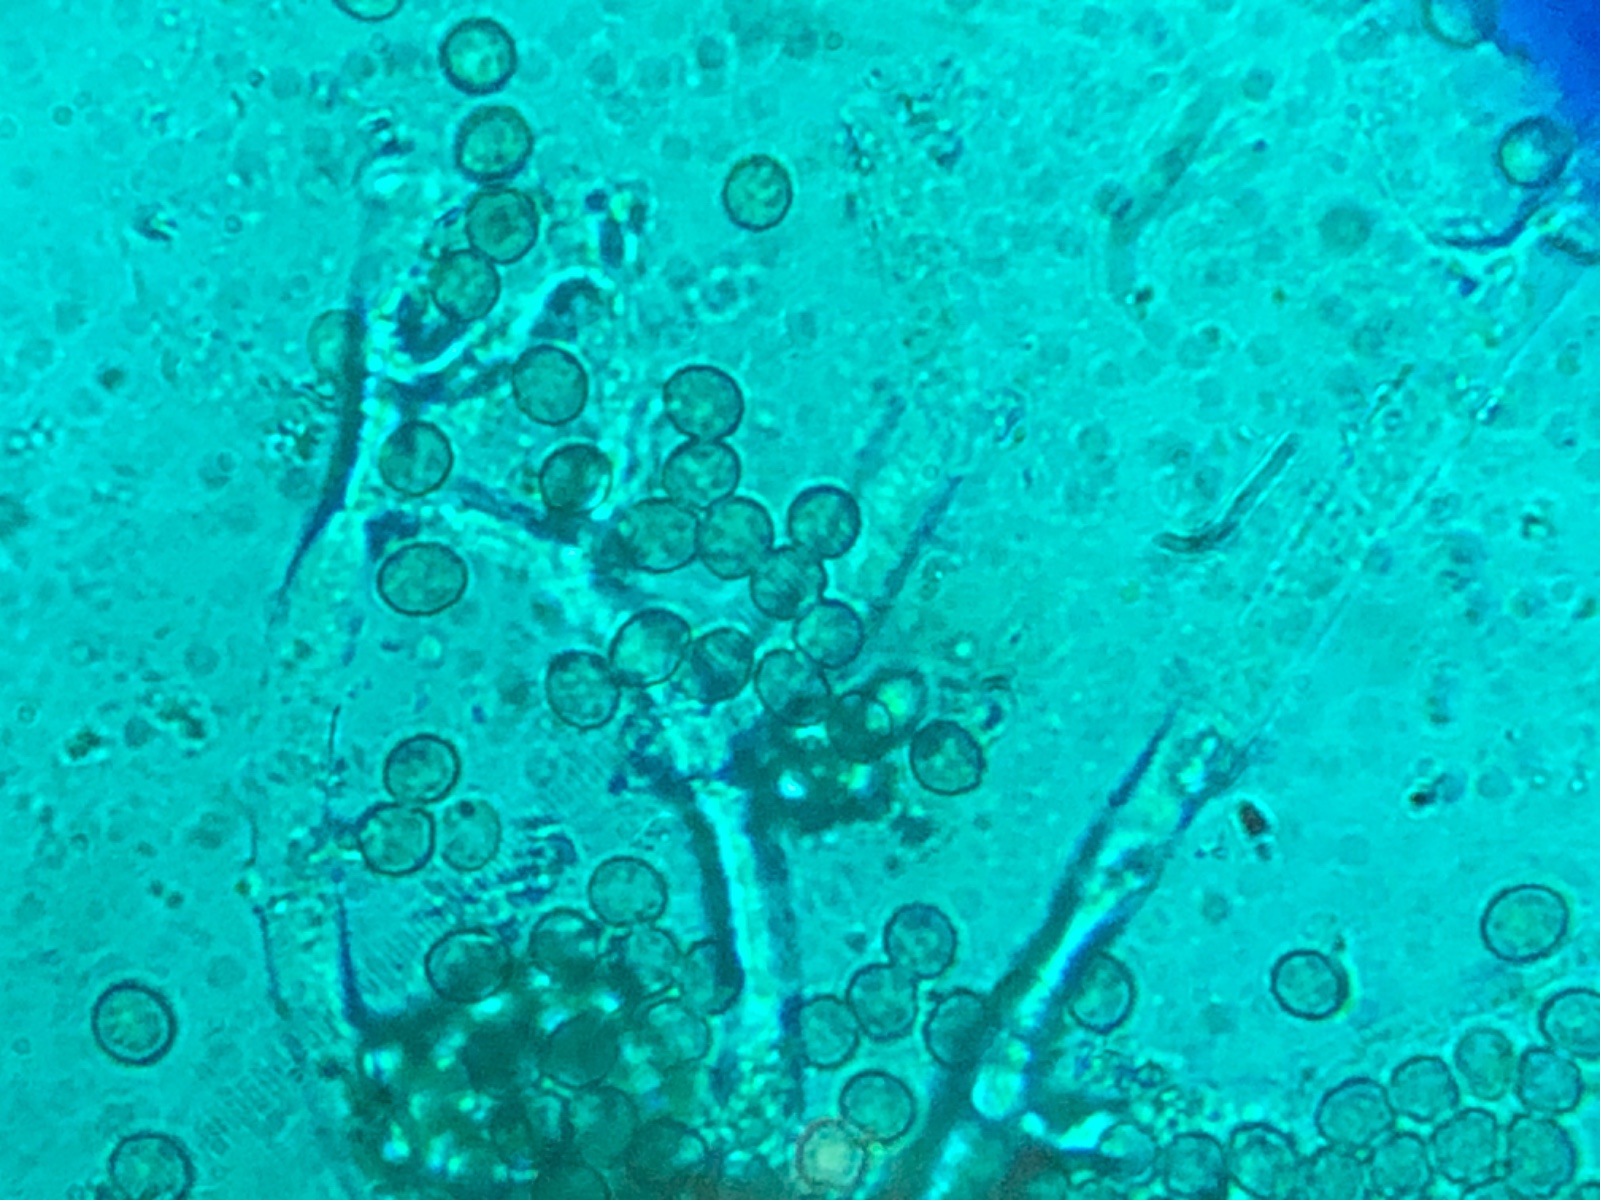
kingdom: Fungi
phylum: Ascomycota
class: Sordariomycetes
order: Hypocreales
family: Hypocreaceae
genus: Trichoderma
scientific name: Trichoderma
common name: kødkerne
